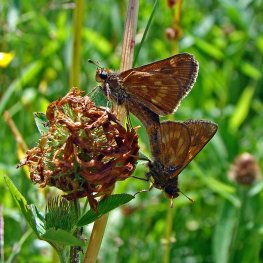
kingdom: Animalia
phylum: Arthropoda
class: Insecta
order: Lepidoptera
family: Hesperiidae
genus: Polites
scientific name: Polites
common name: Long Dash Skipper
